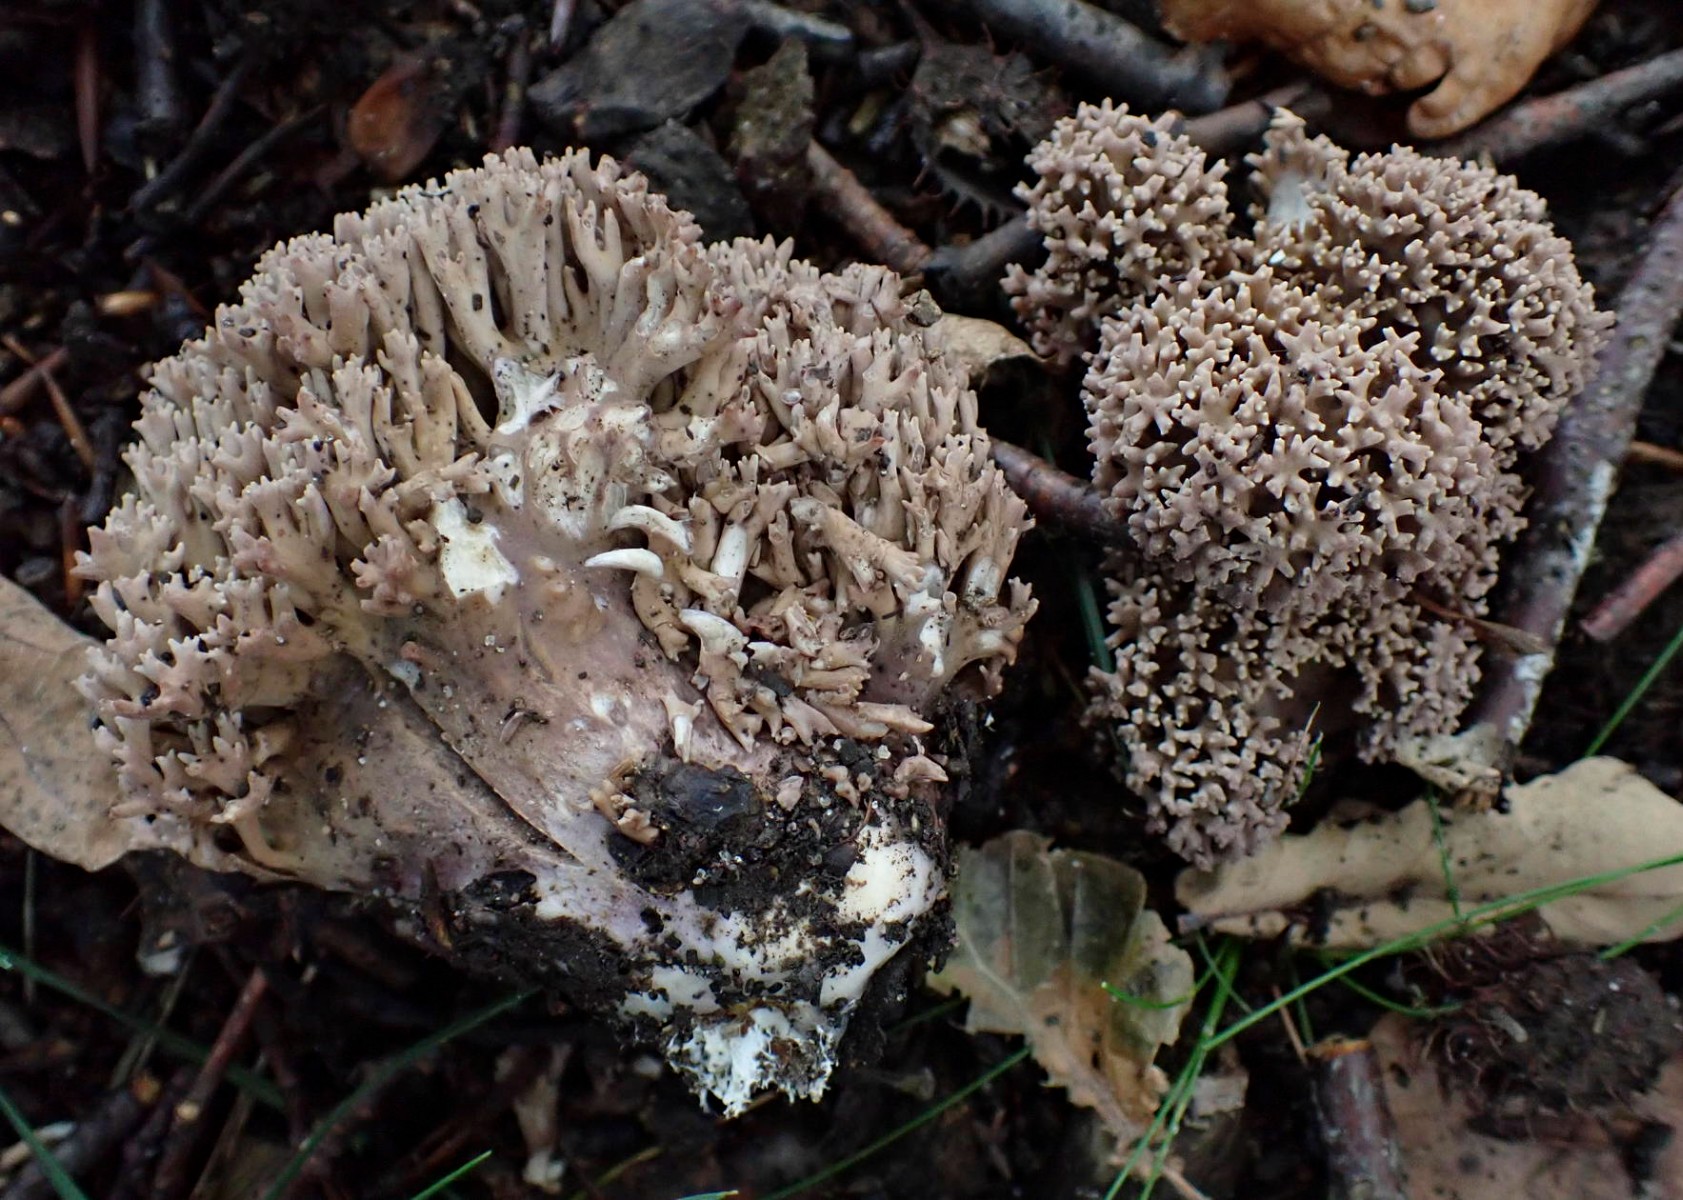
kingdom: Fungi
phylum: Basidiomycota
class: Agaricomycetes
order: Gomphales
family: Gomphaceae
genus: Ramaria
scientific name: Ramaria fumigata
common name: violet koralsvamp
